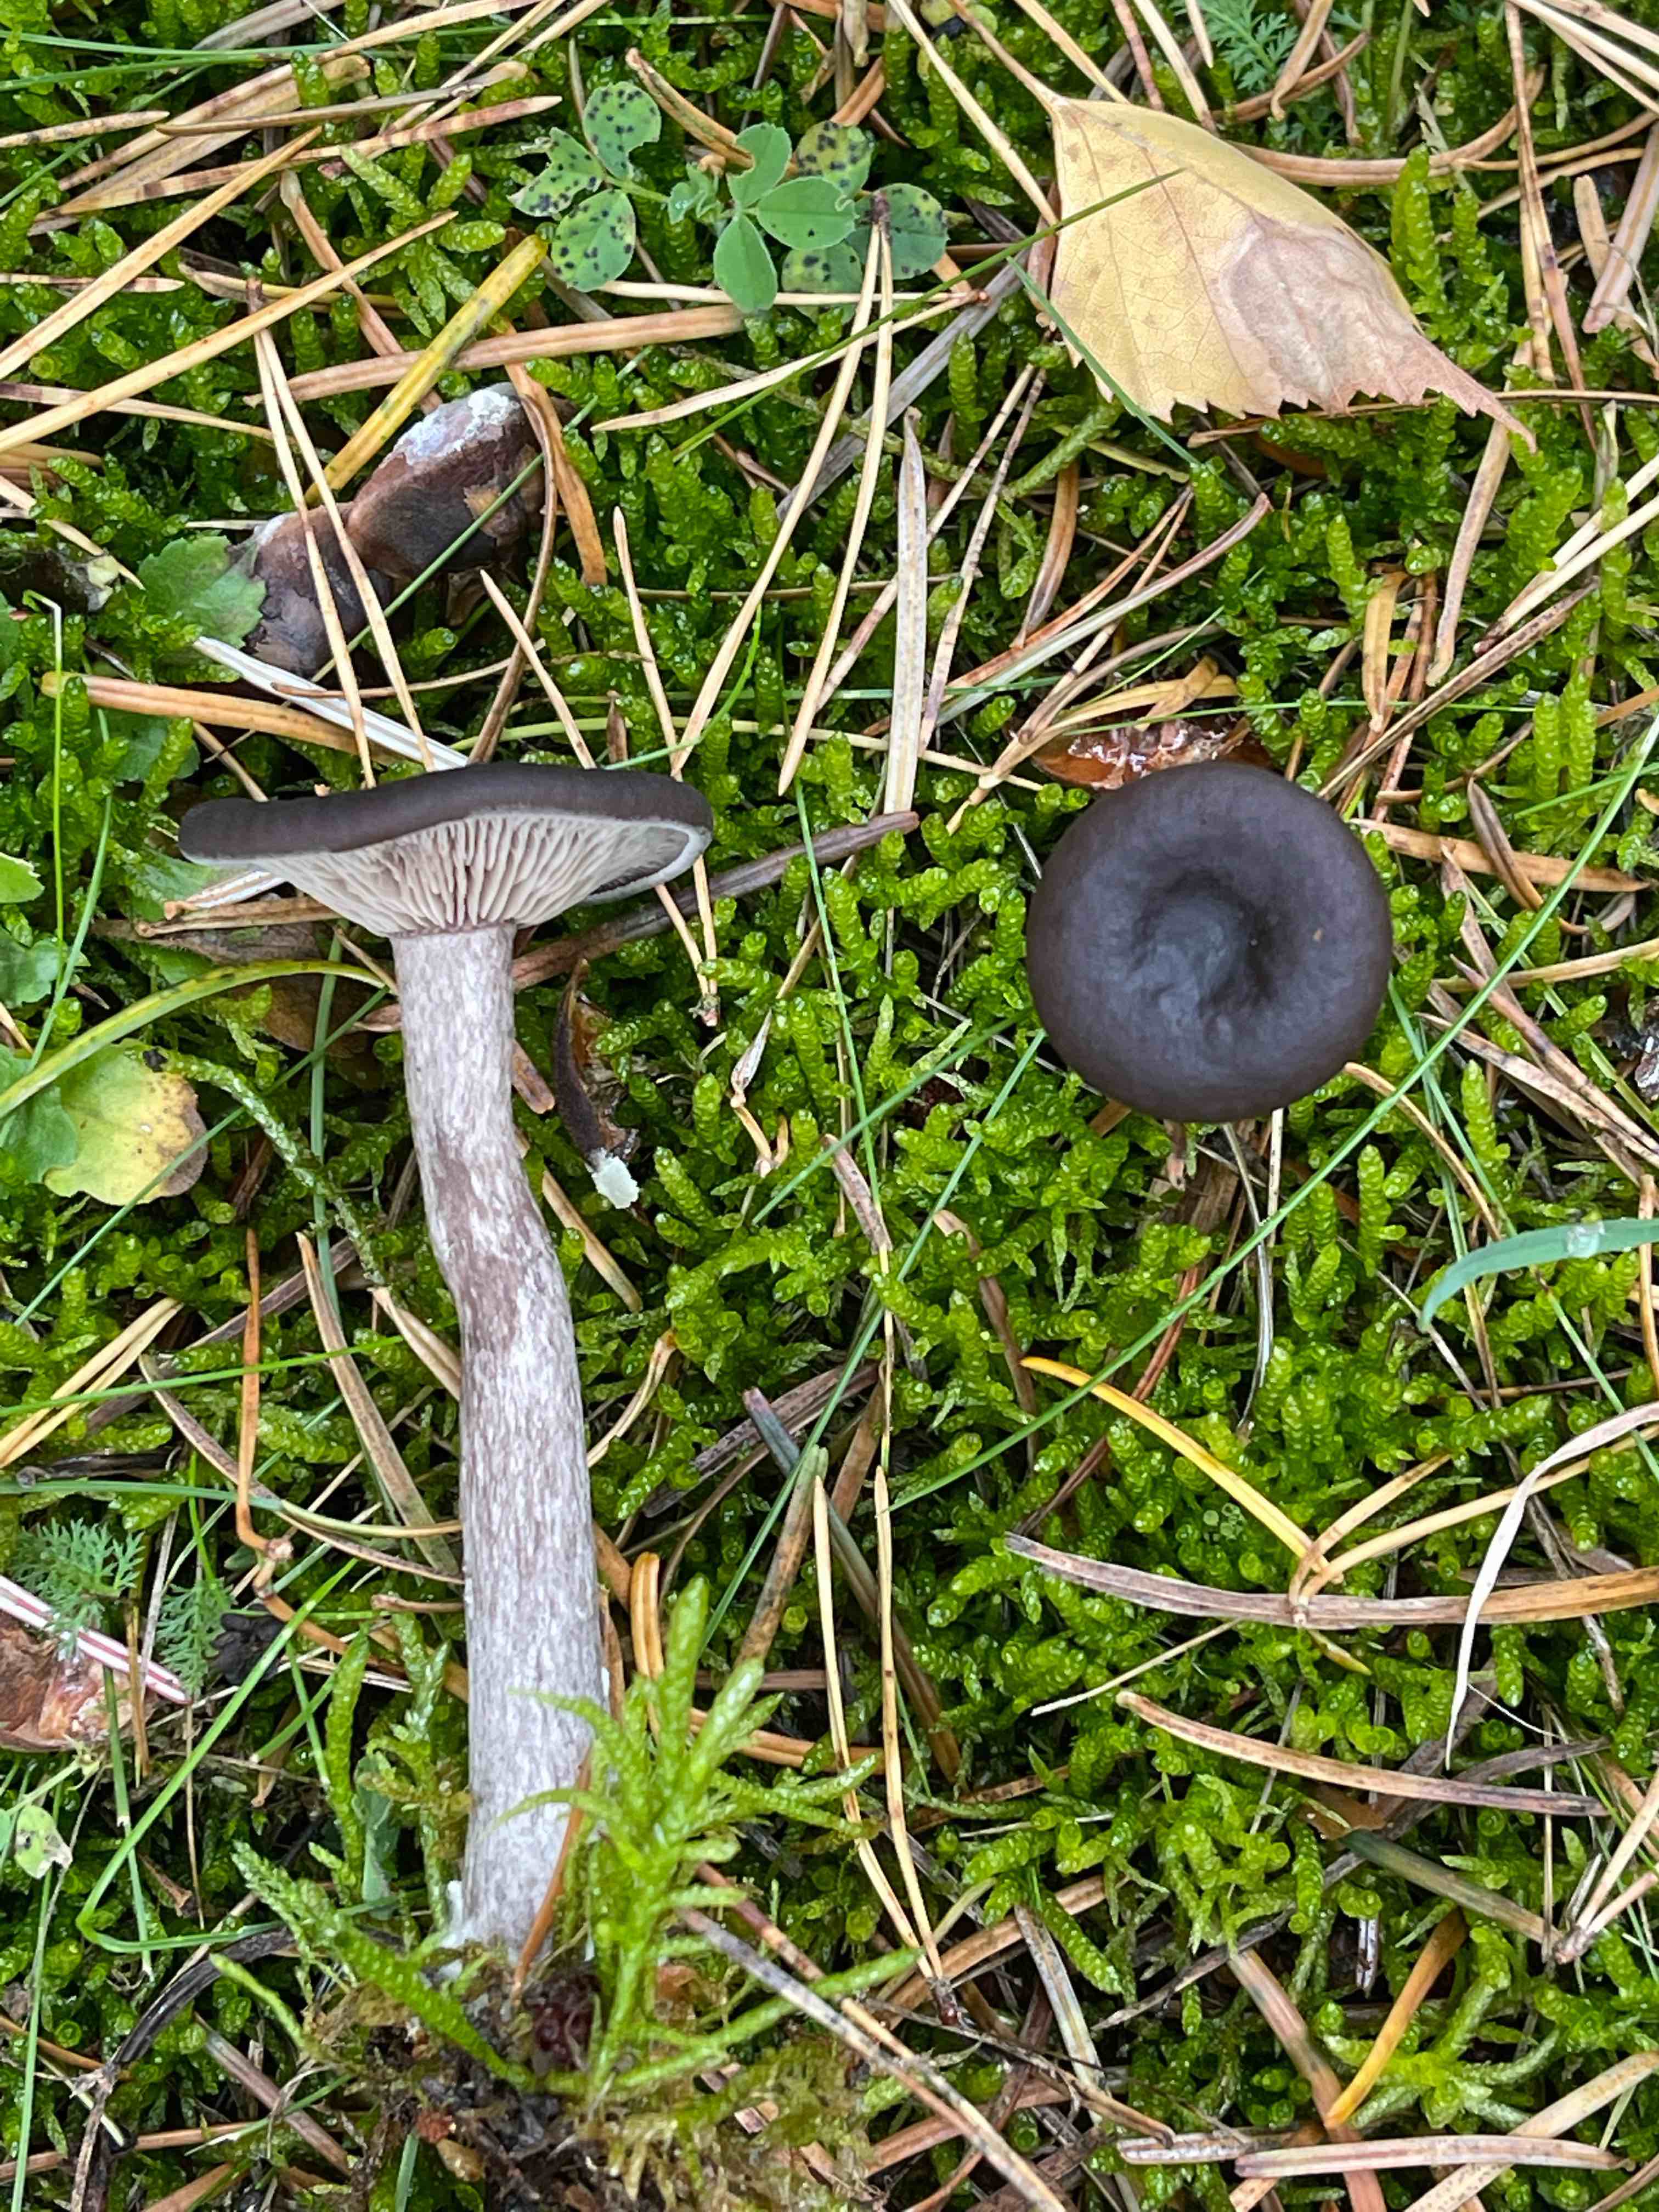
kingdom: Fungi
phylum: Basidiomycota
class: Agaricomycetes
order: Agaricales
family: Pseudoclitocybaceae
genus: Pseudoclitocybe
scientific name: Pseudoclitocybe cyathiformis
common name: almindelig bægertragthat
